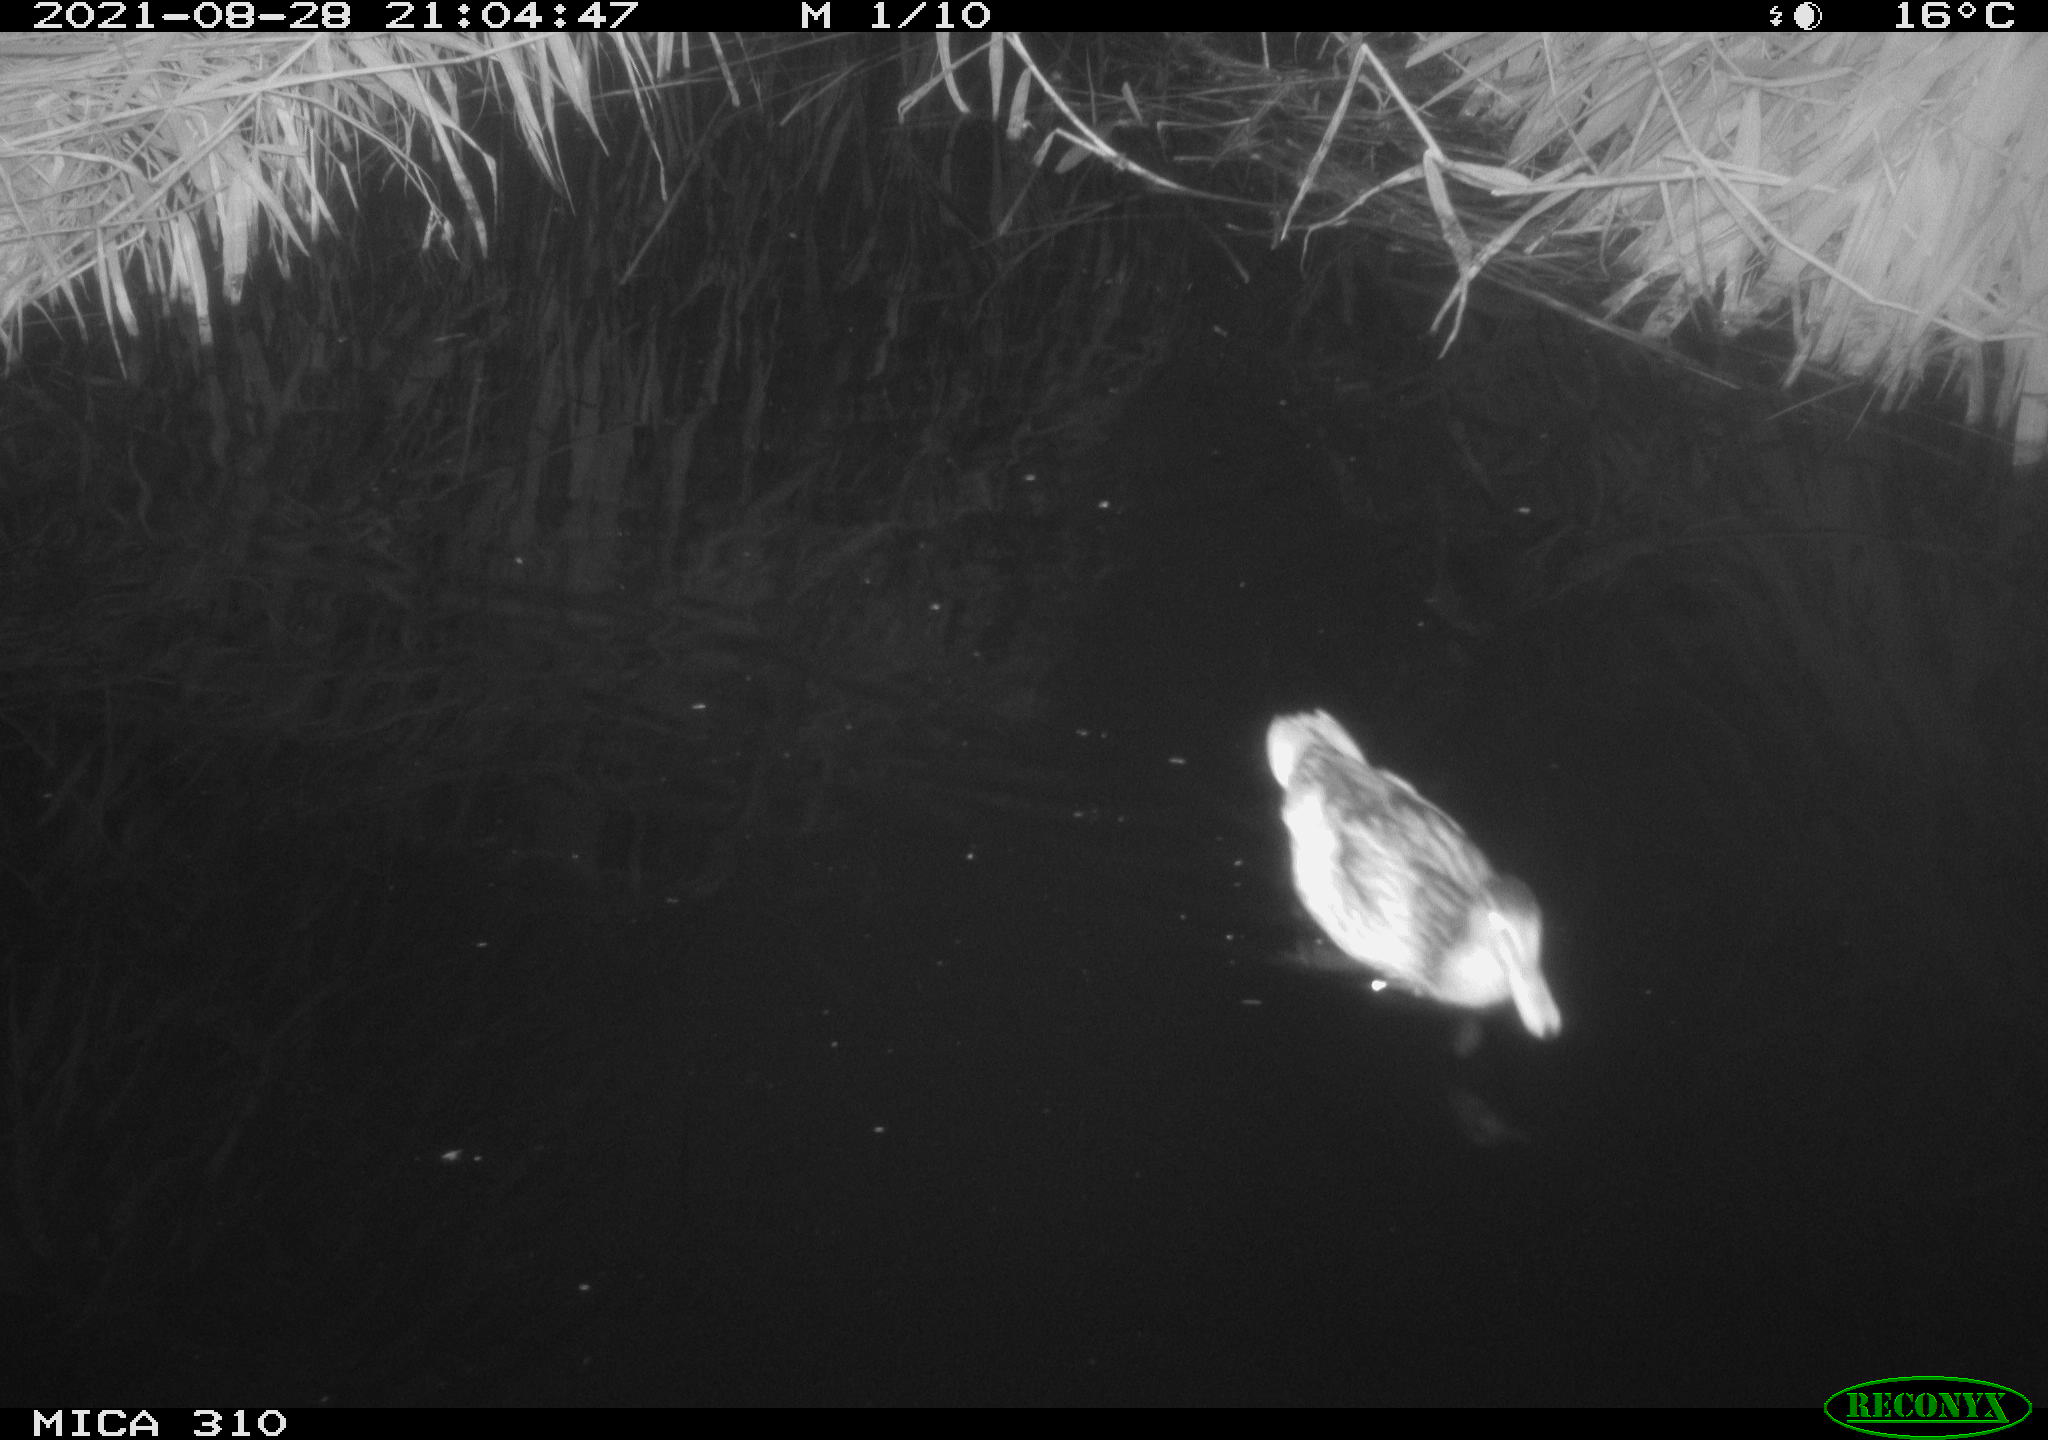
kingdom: Animalia
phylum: Chordata
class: Aves
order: Anseriformes
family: Anatidae
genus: Anas
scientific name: Anas platyrhynchos
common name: Mallard
